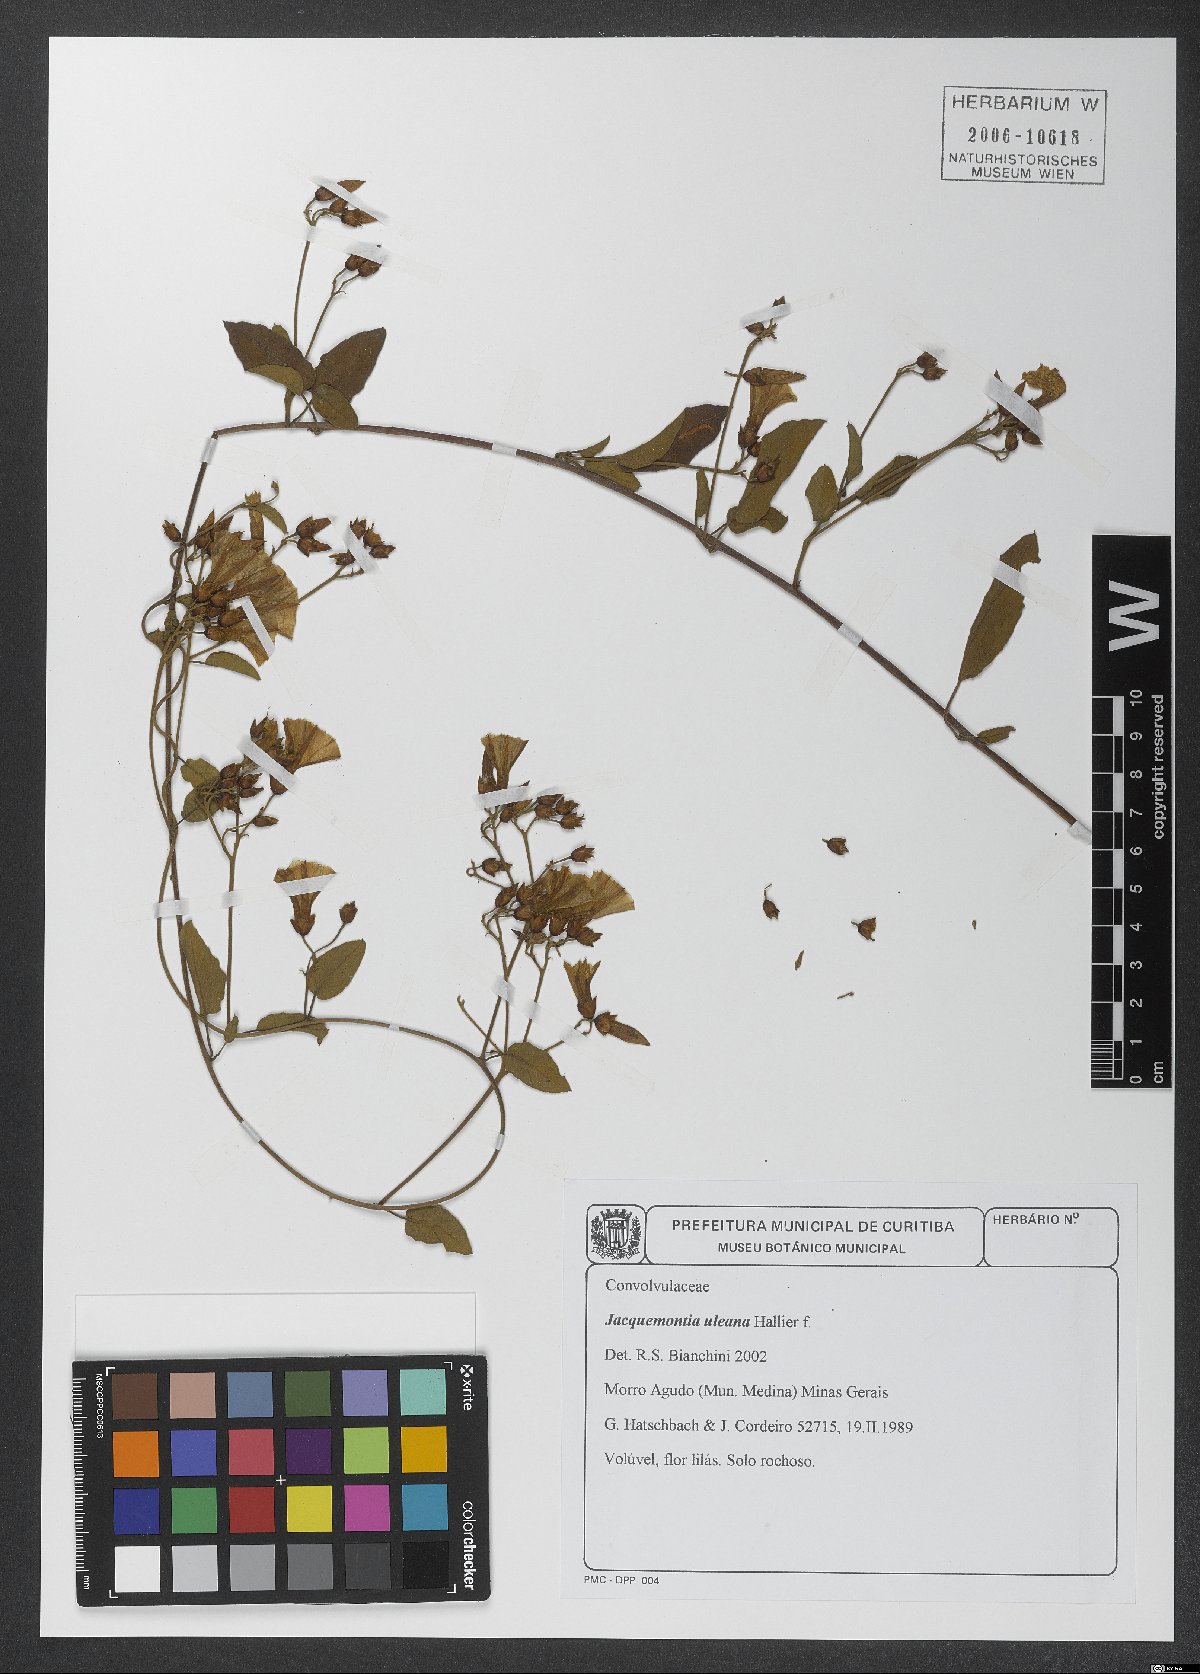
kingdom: Plantae
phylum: Tracheophyta
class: Magnoliopsida
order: Solanales
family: Convolvulaceae
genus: Jacquemontia
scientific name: Jacquemontia frankeana
